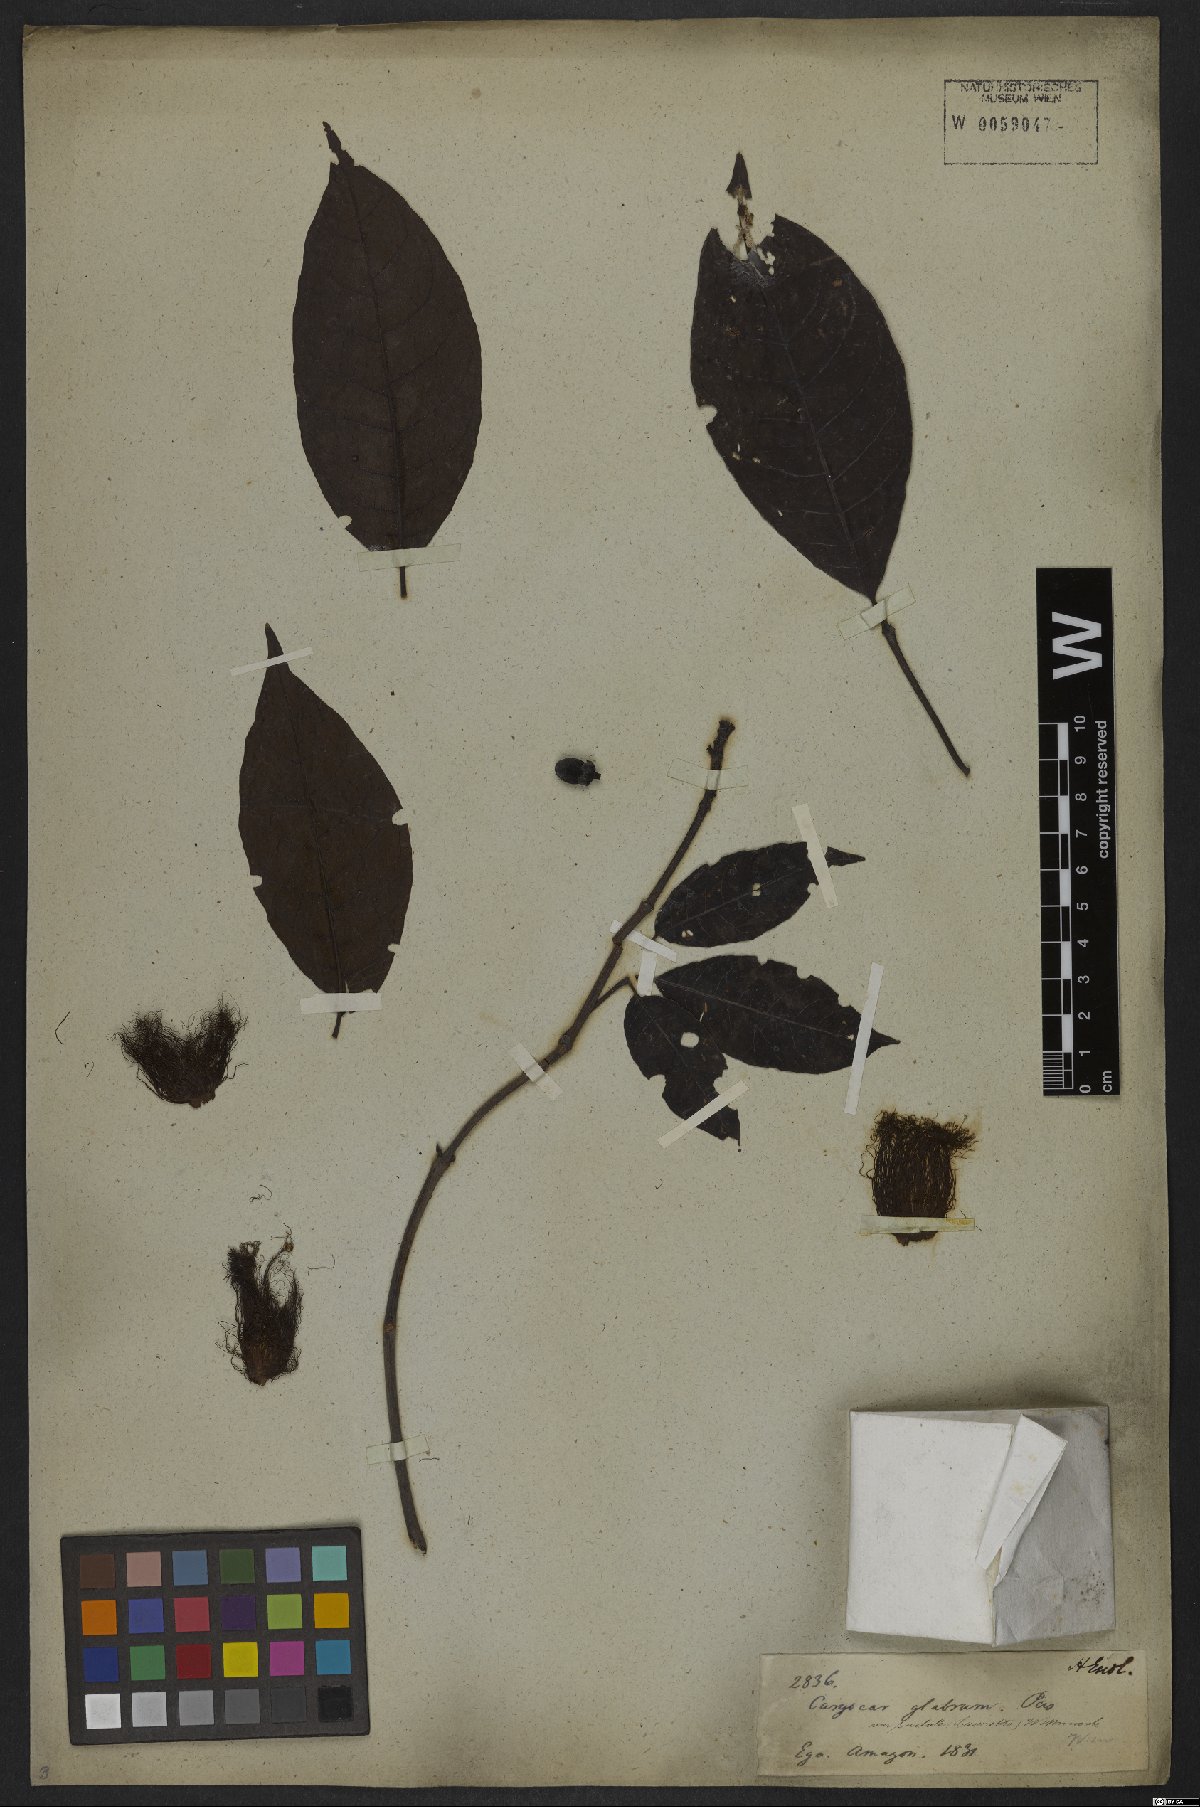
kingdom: Plantae
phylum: Tracheophyta
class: Magnoliopsida
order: Malpighiales
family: Caryocaraceae
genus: Caryocar
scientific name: Caryocar glabrum
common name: Bat's souari
